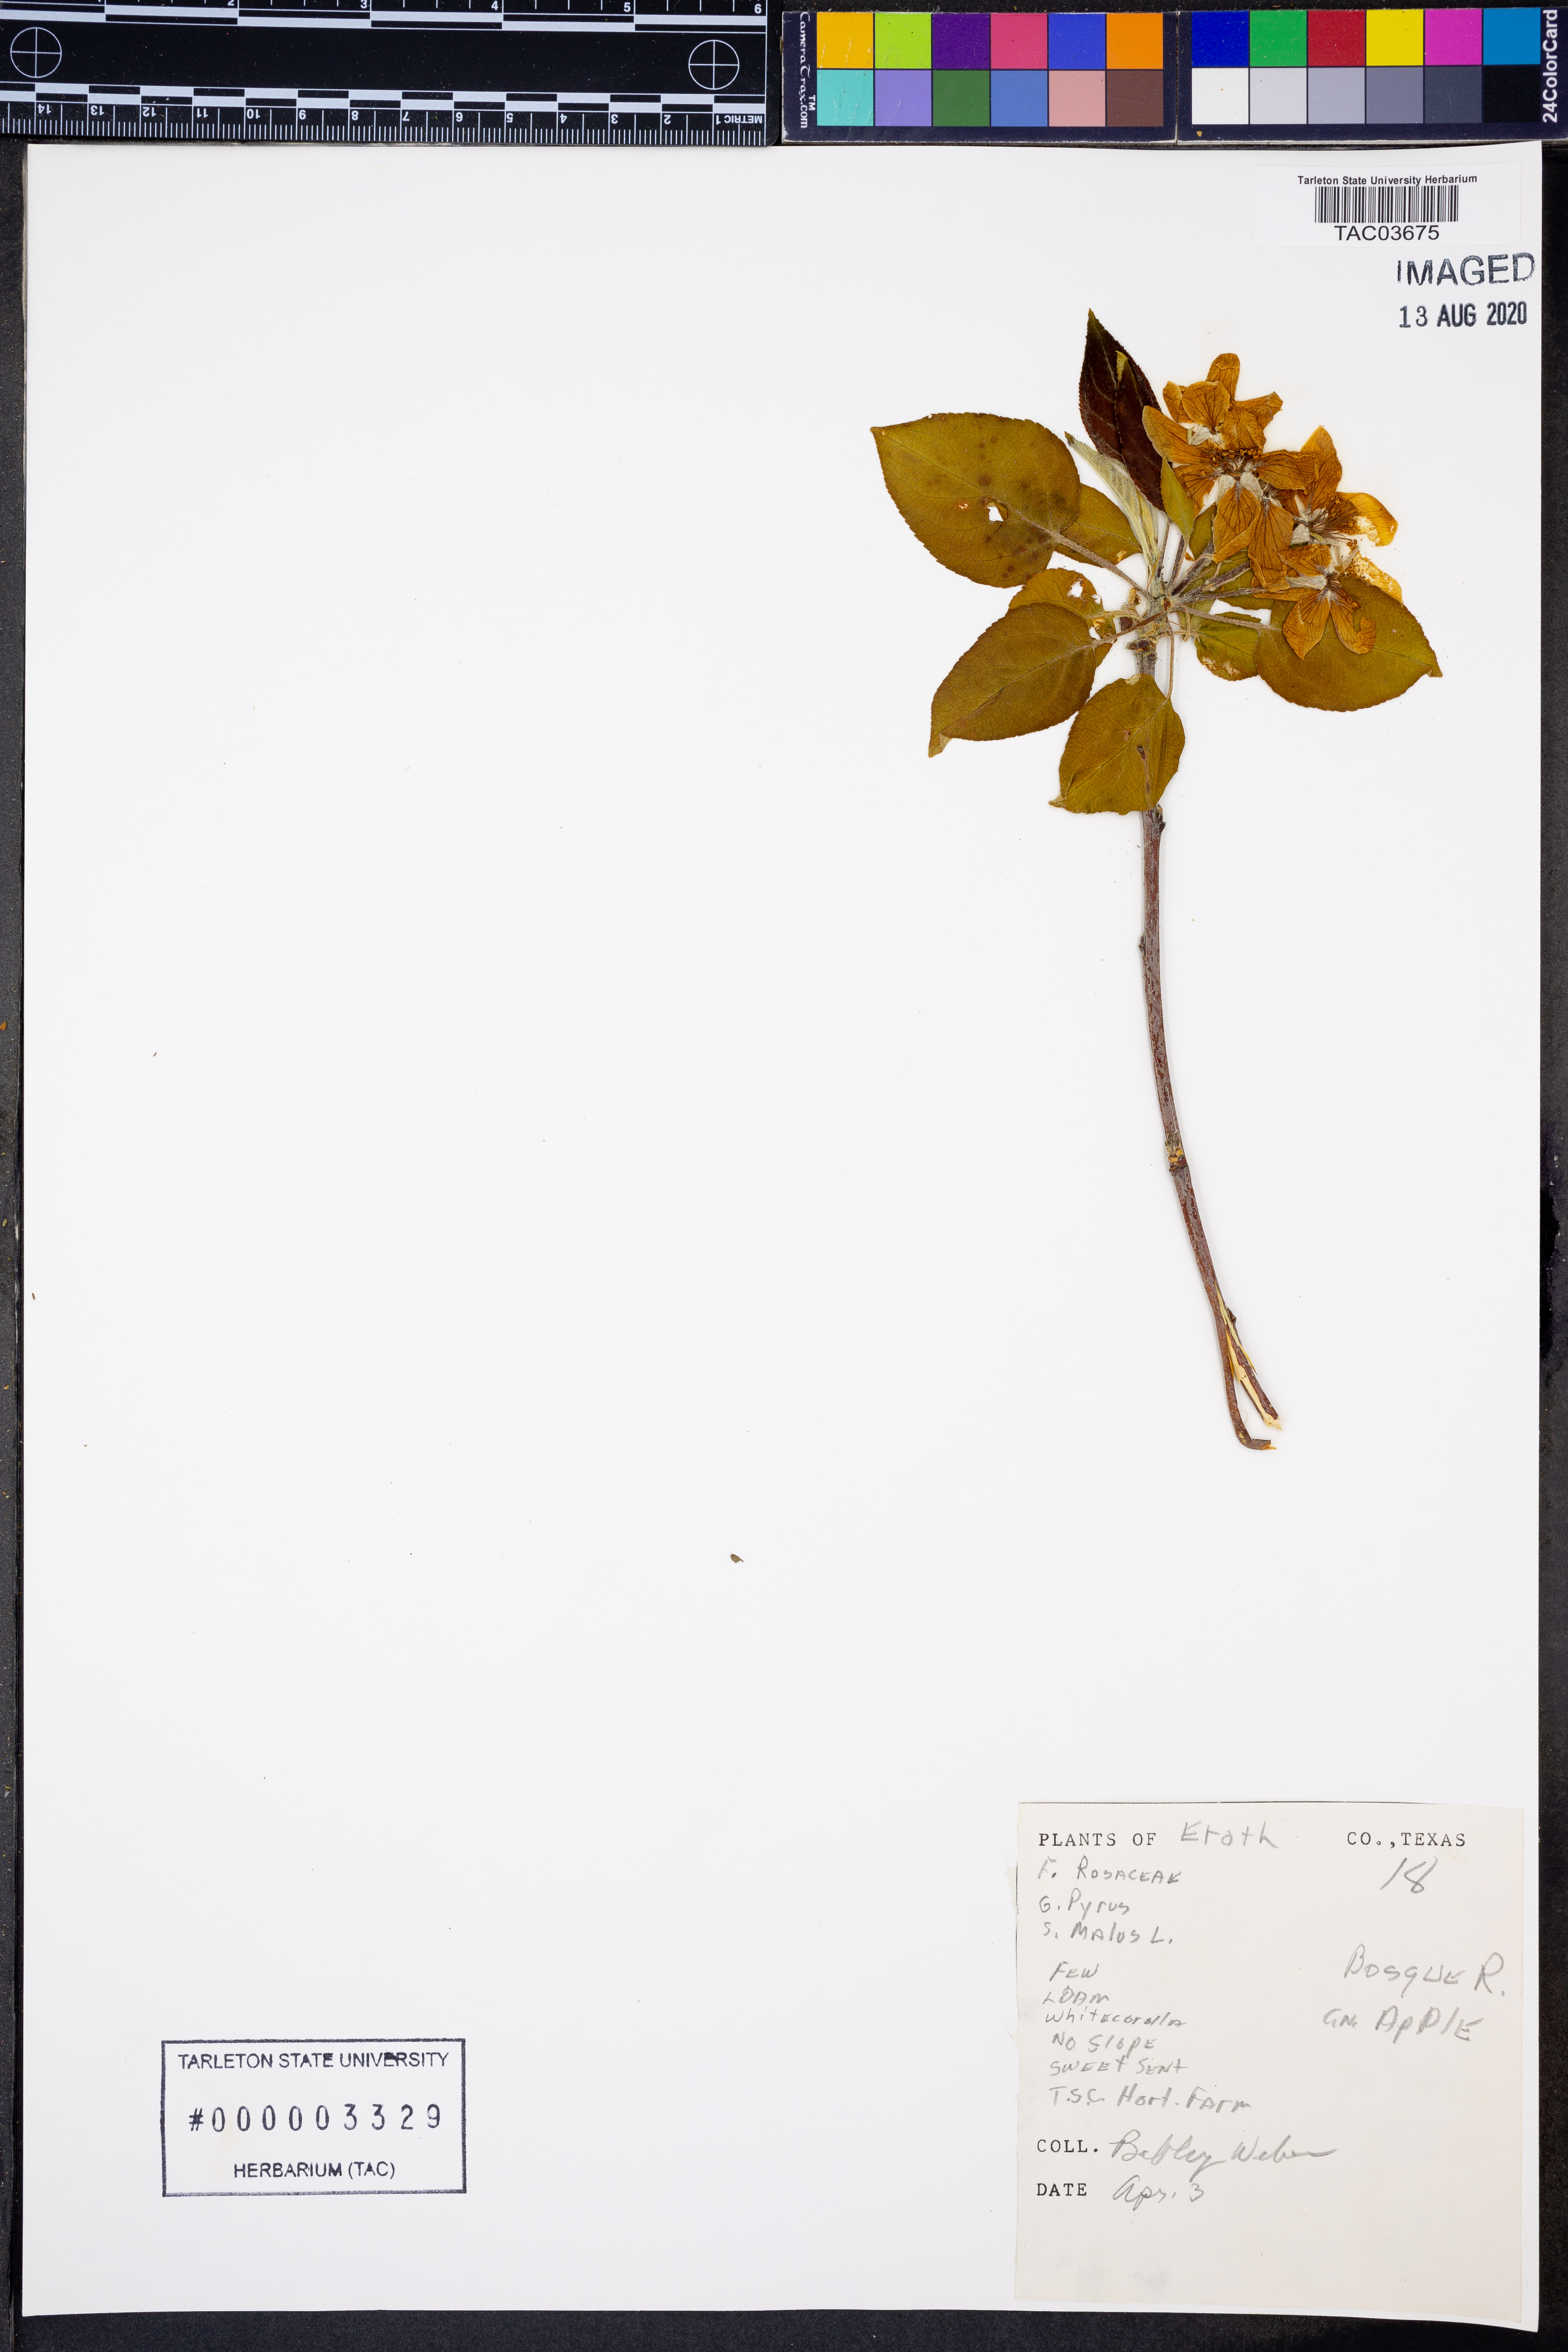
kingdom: Plantae
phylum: Tracheophyta
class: Magnoliopsida
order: Rosales
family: Rosaceae
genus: Malus
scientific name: Malus domestica
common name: Apple
